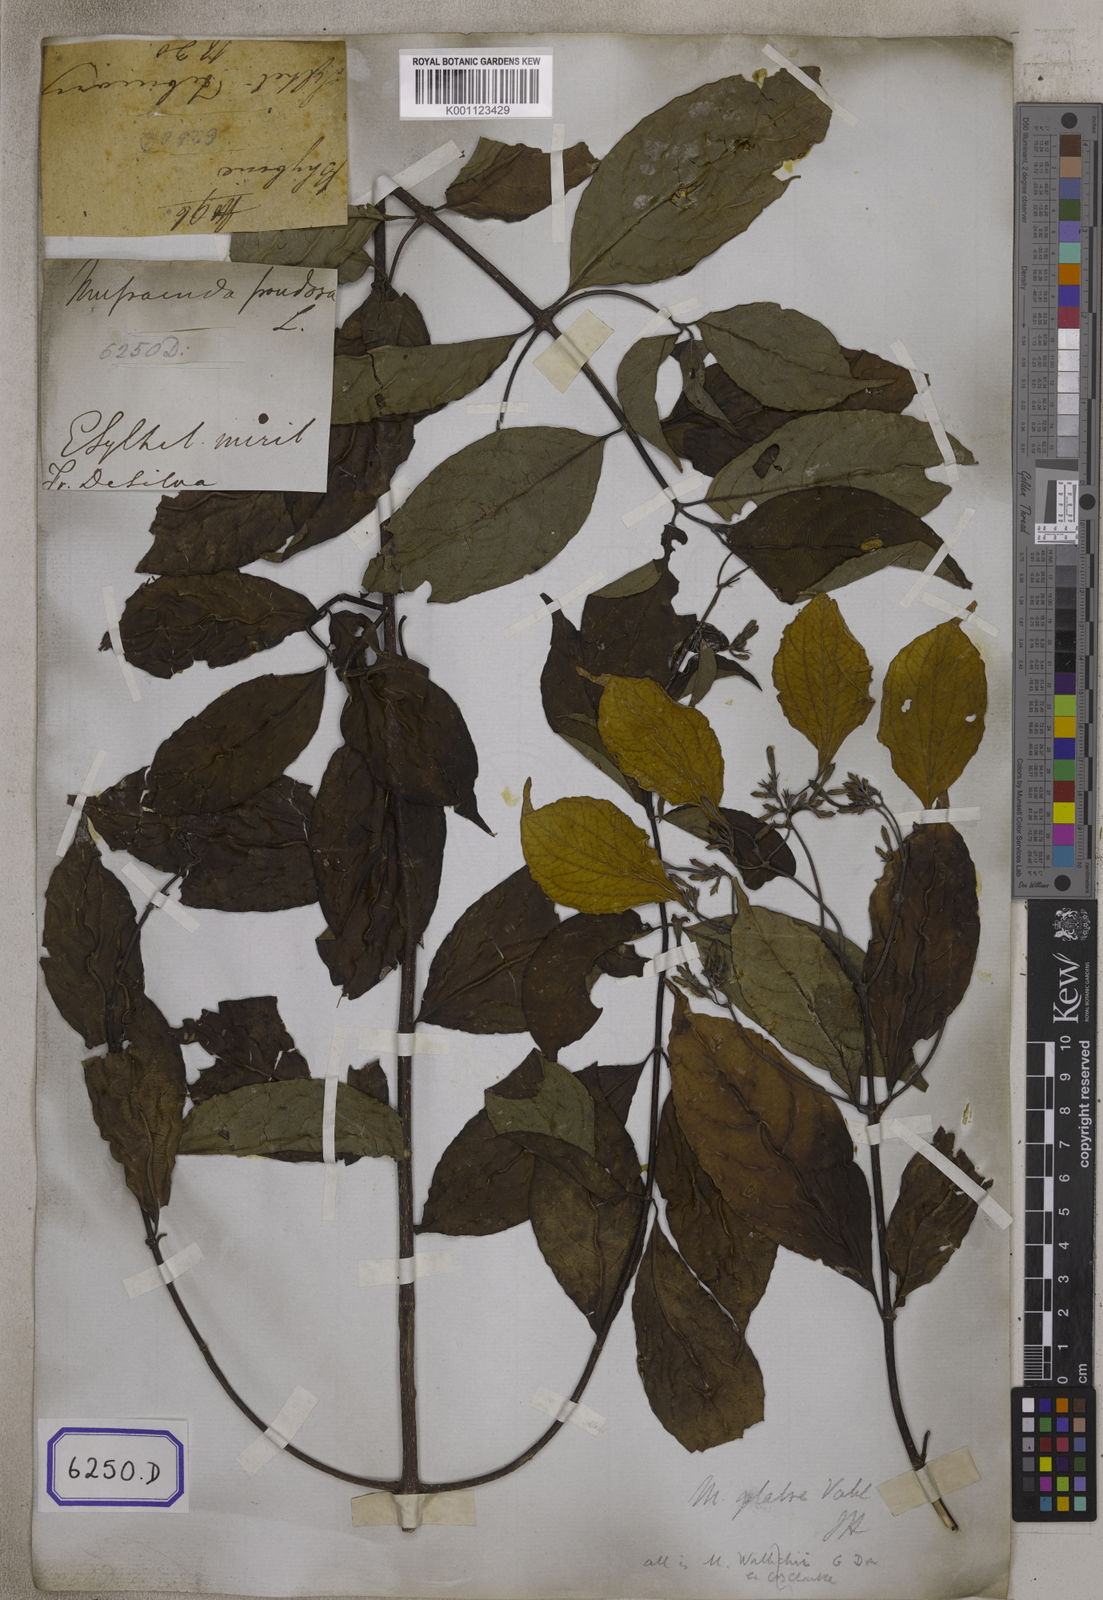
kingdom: Plantae
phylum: Tracheophyta
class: Magnoliopsida
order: Gentianales
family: Rubiaceae
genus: Mussaenda
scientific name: Mussaenda
